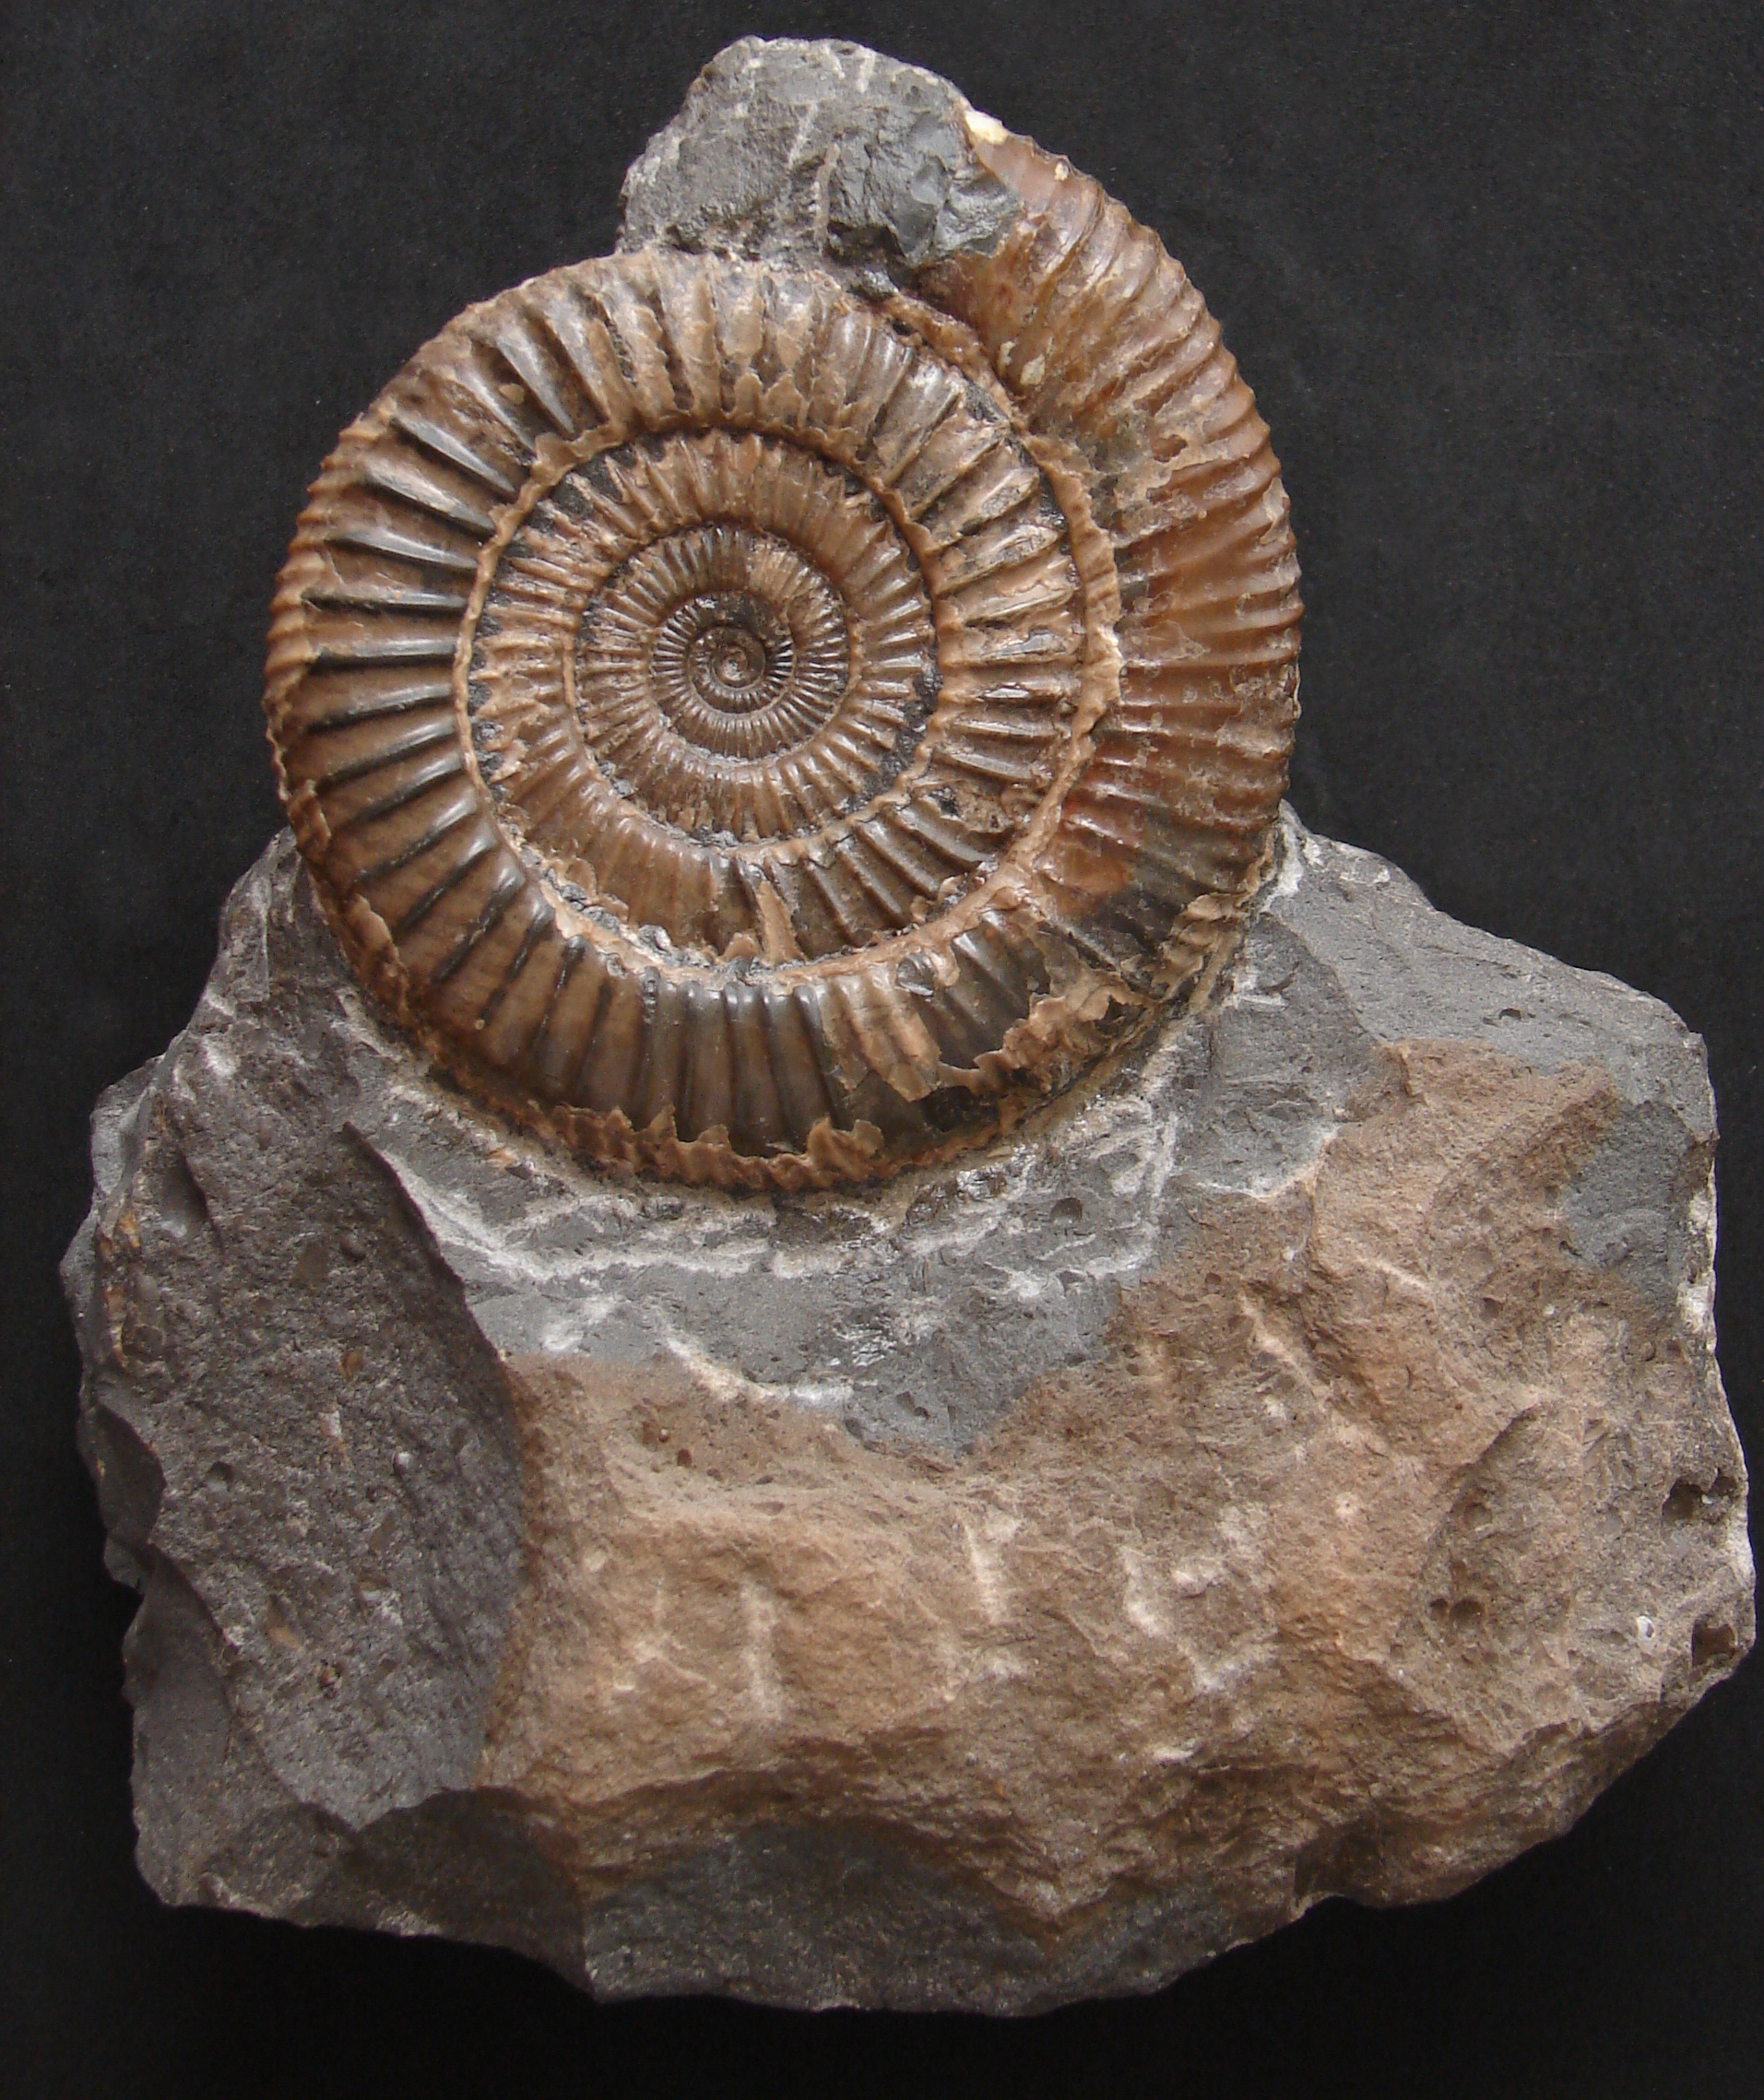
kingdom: Animalia
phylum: Mollusca
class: Cephalopoda
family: Dactylioceratidae
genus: Dactylioceras
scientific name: Dactylioceras athleticum
